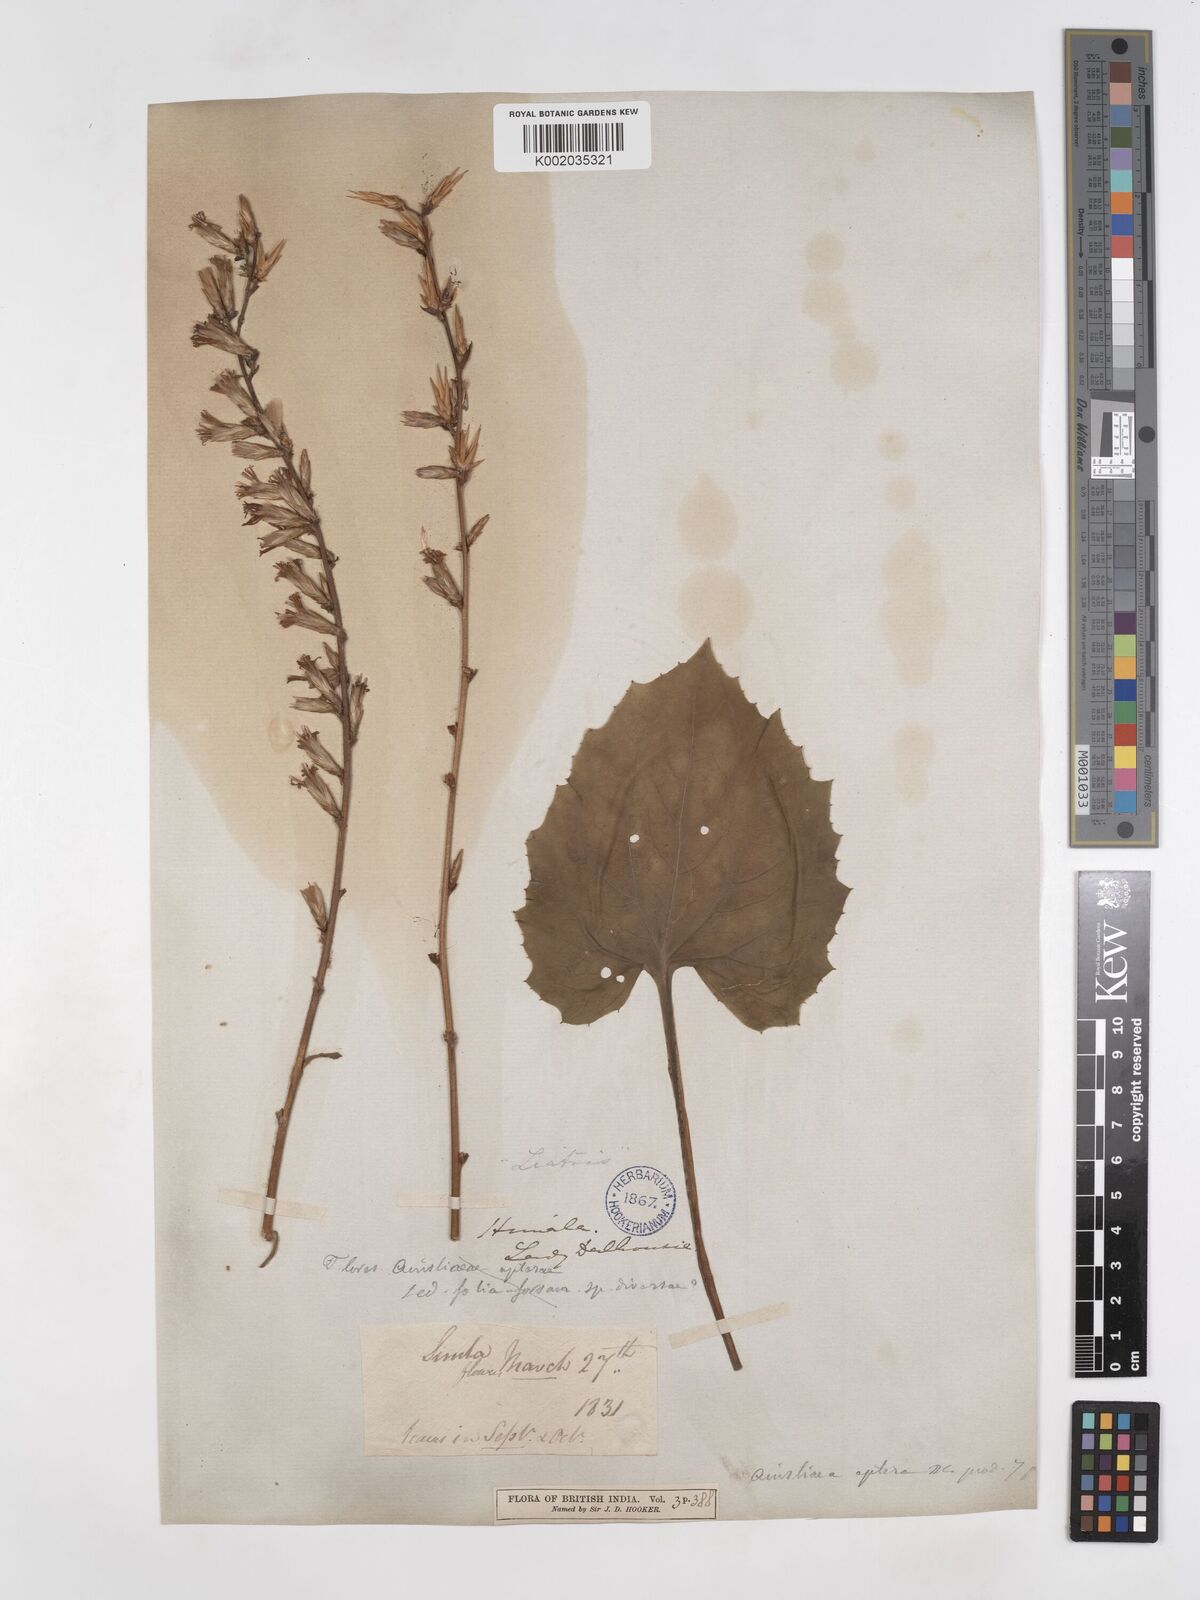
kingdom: Plantae
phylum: Tracheophyta
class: Magnoliopsida
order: Asterales
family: Asteraceae
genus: Ainsliaea
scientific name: Ainsliaea aptera
